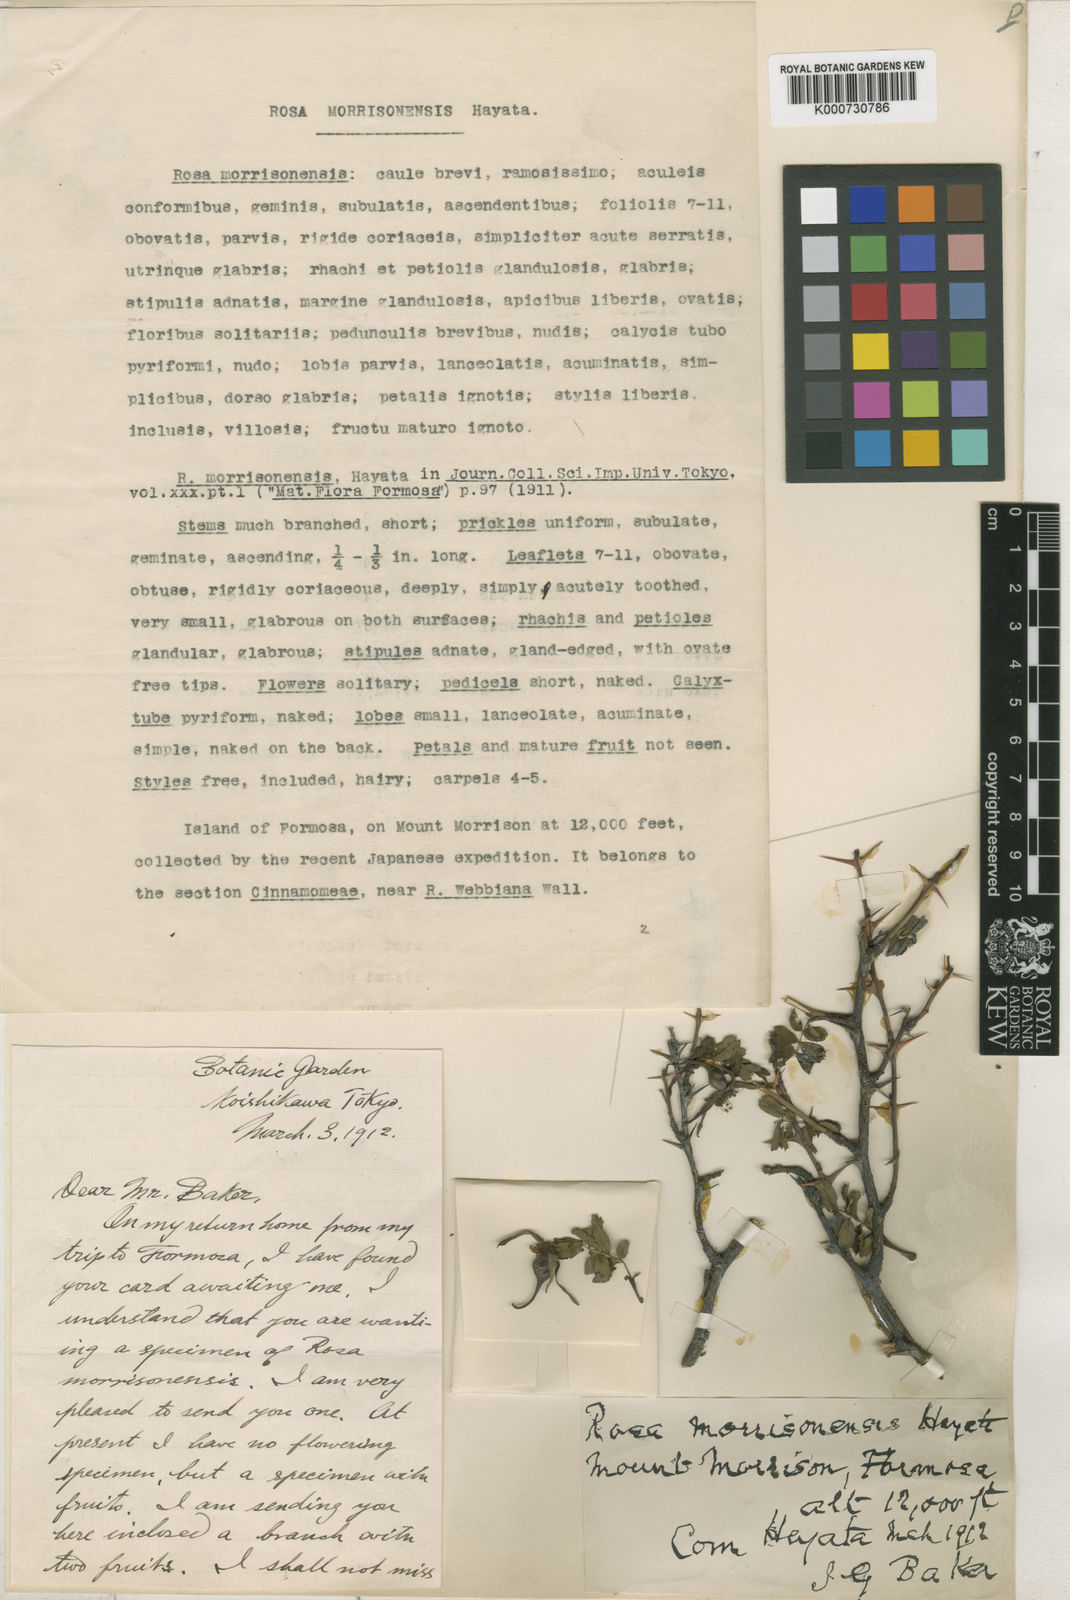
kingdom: Plantae
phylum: Tracheophyta
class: Magnoliopsida
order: Rosales
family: Rosaceae
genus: Rosa
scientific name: Rosa morrisonensis
